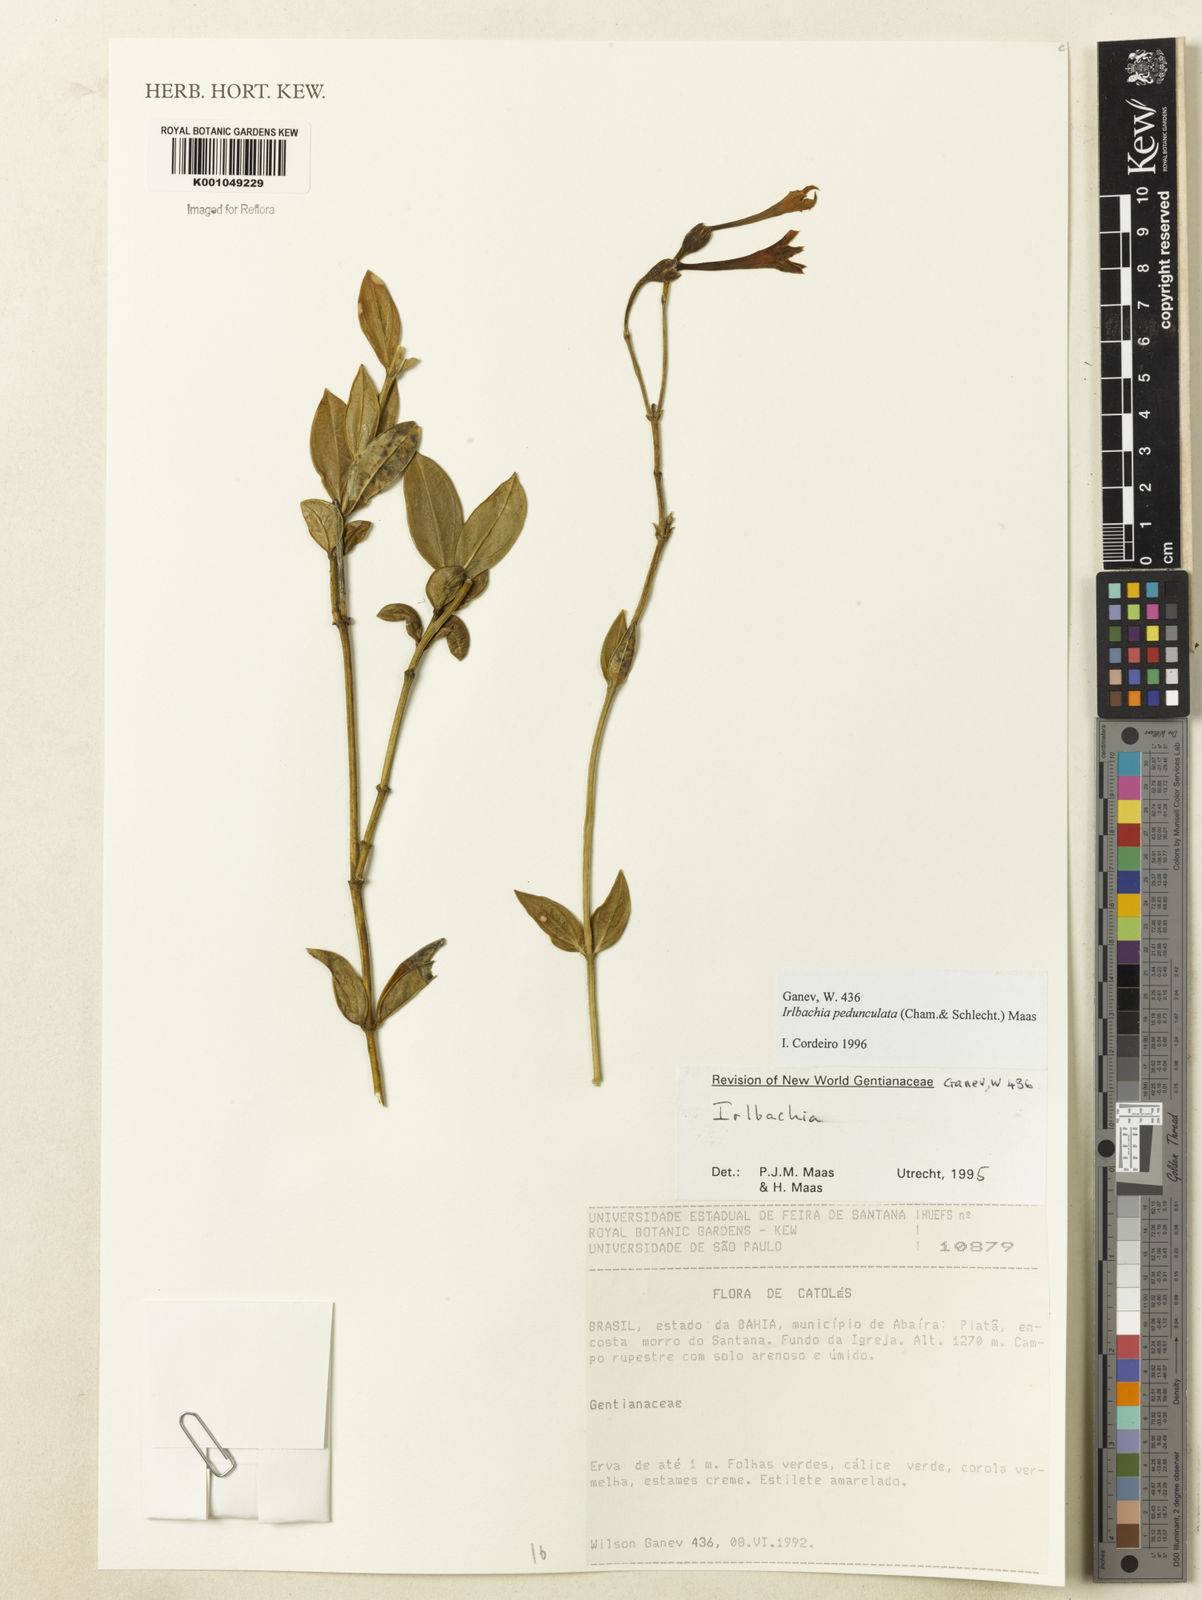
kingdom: Plantae
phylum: Tracheophyta
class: Magnoliopsida
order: Gentianales
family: Gentianaceae
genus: Calolisianthus
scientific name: Calolisianthus pedunculatus
